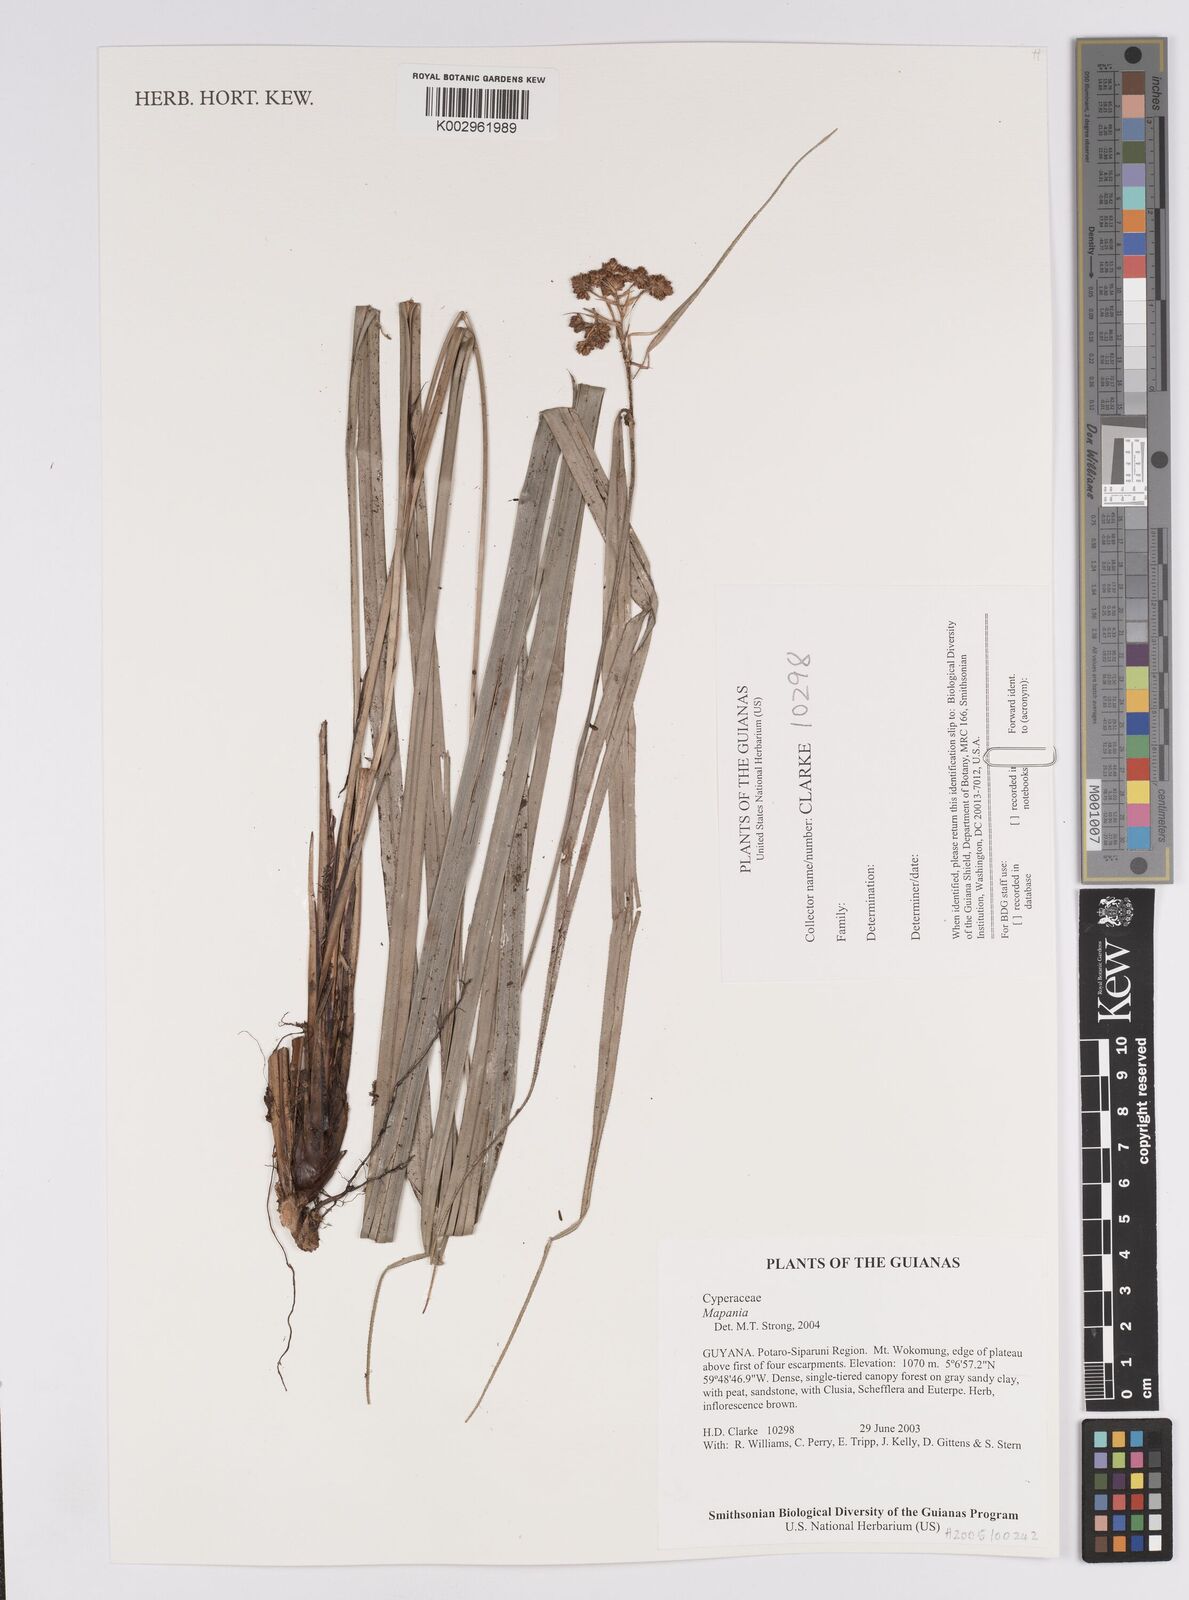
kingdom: Plantae
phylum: Tracheophyta
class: Liliopsida
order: Poales
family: Cyperaceae
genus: Mapania
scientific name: Mapania
